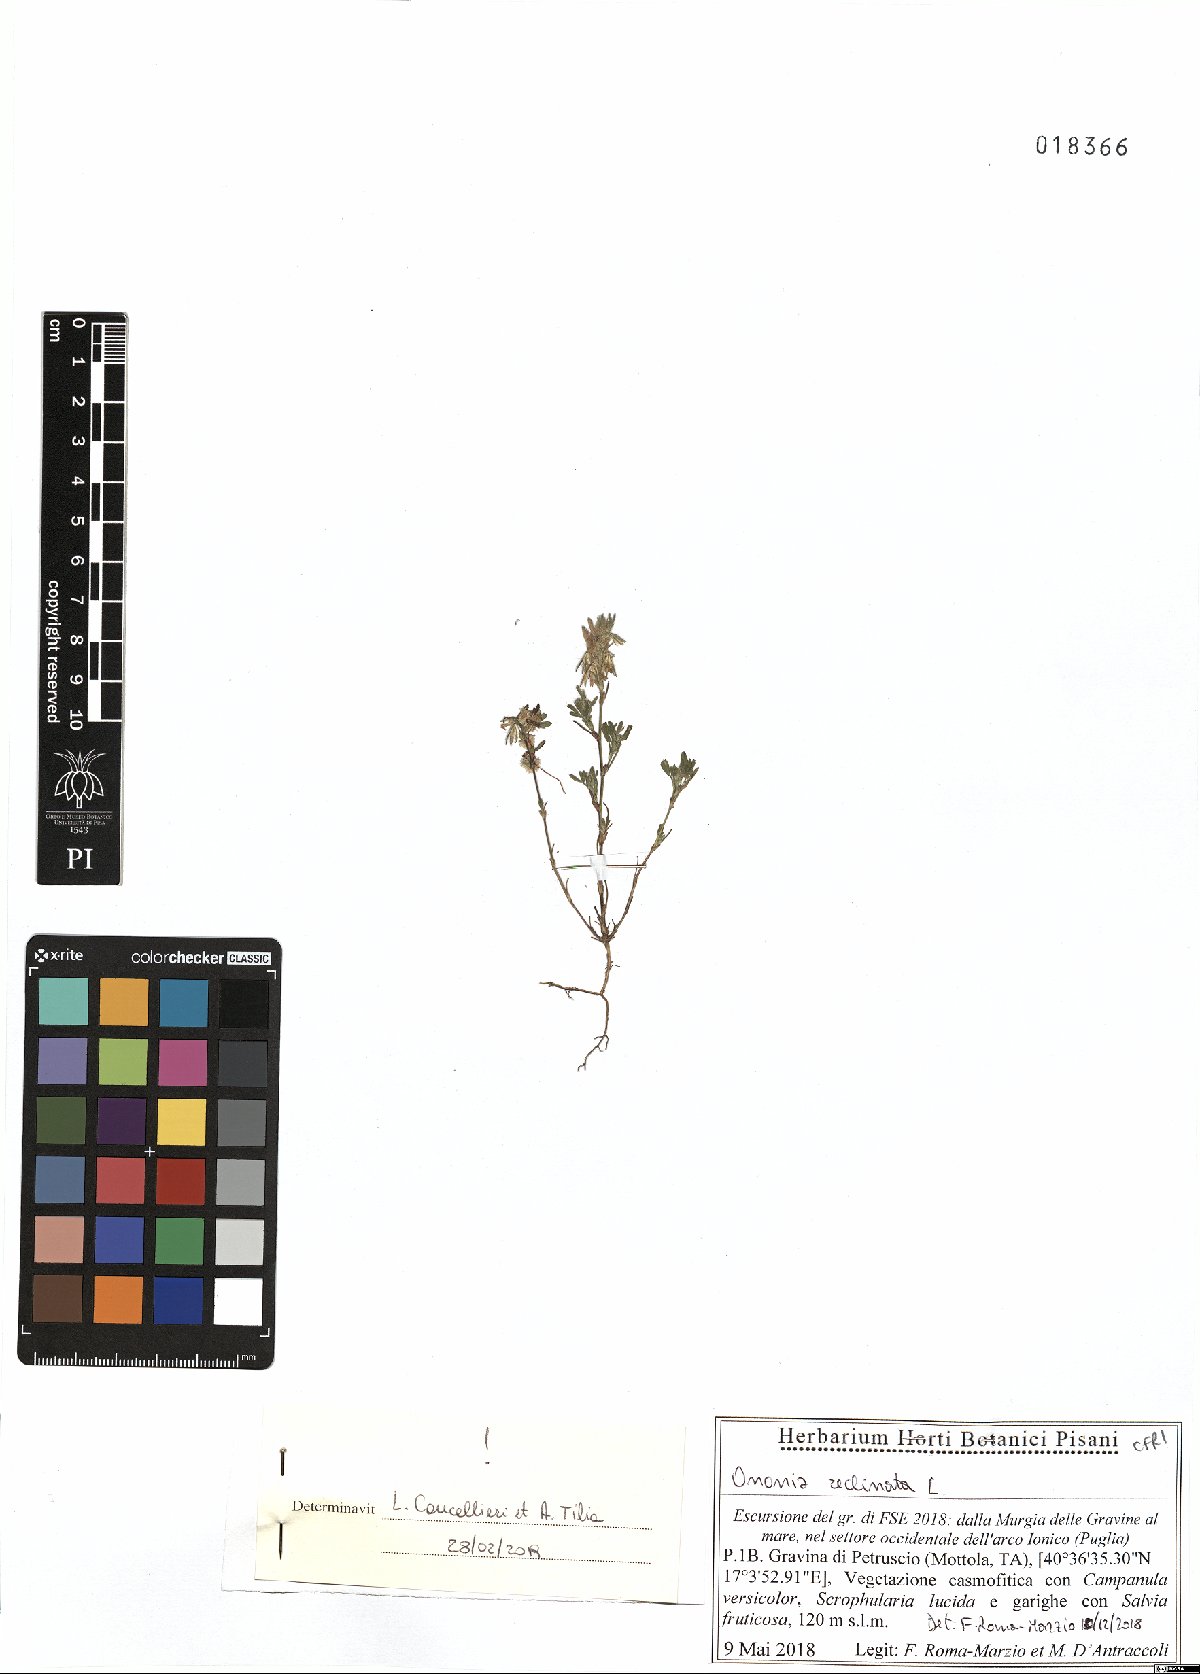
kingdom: Plantae
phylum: Tracheophyta
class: Magnoliopsida
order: Fabales
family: Fabaceae
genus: Ononis
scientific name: Ononis reclinata
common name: Small restharrow
